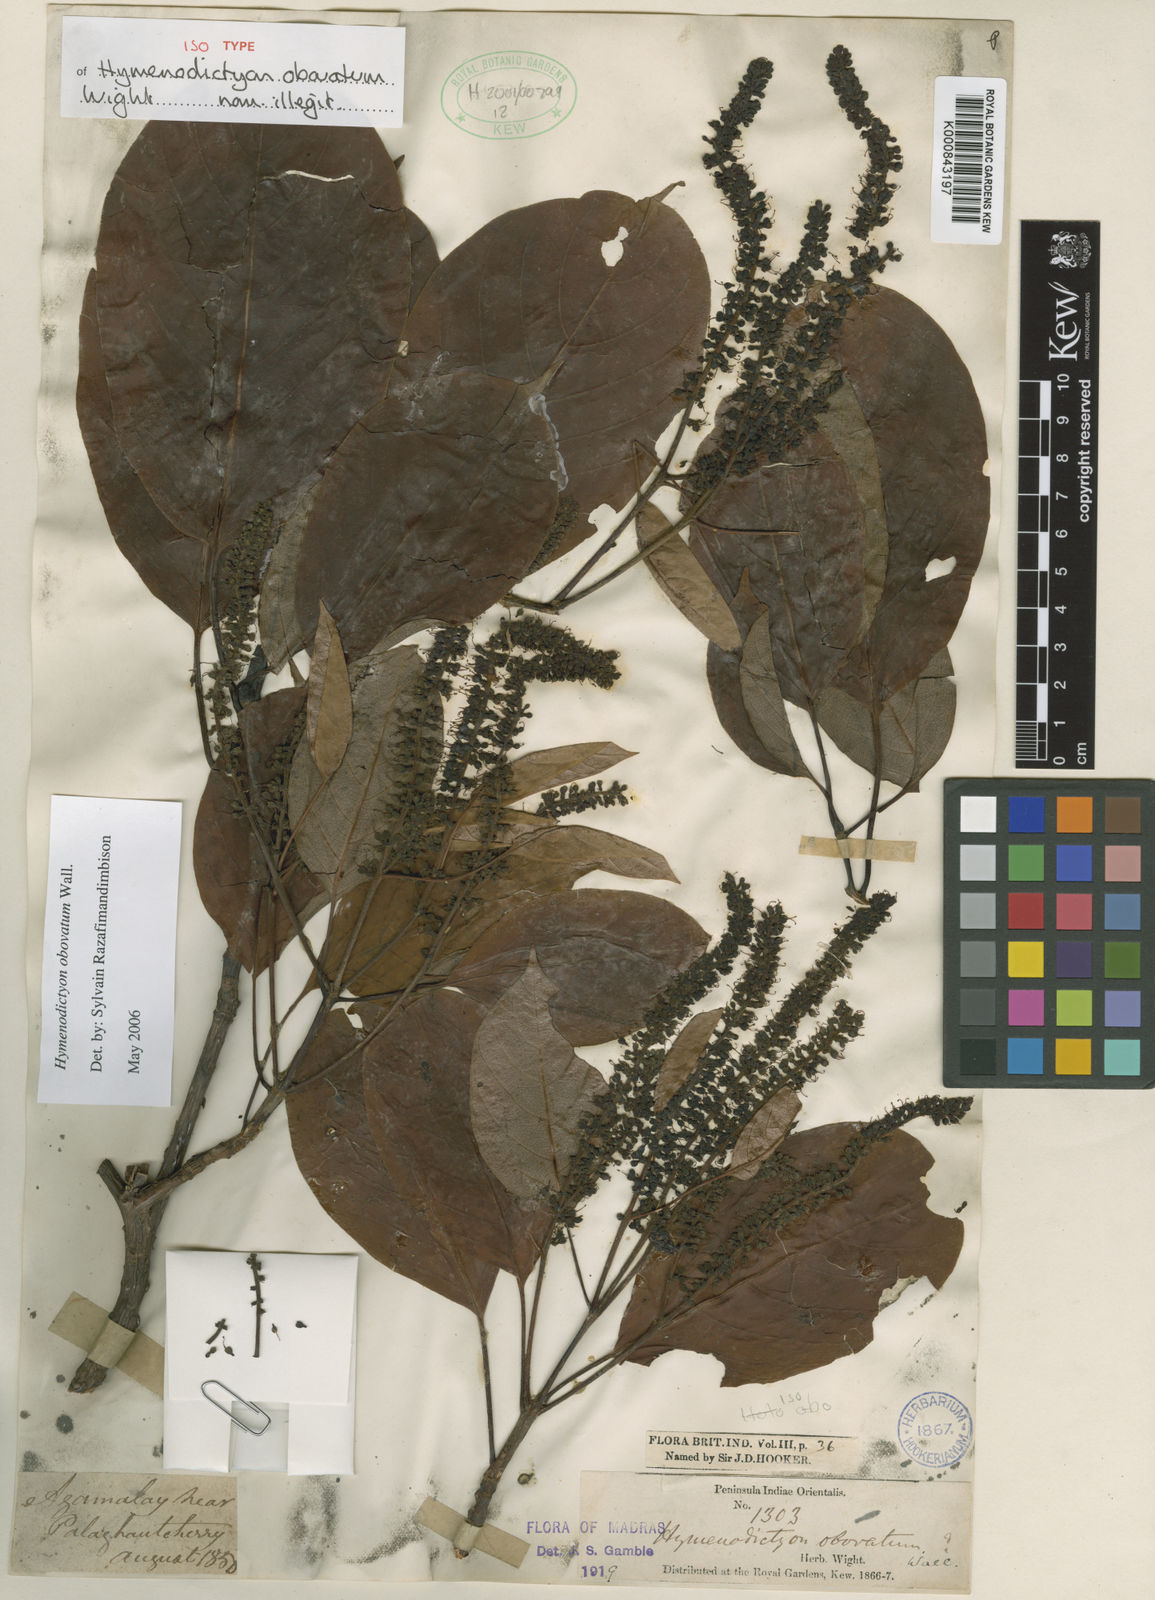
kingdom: Plantae
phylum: Tracheophyta
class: Magnoliopsida
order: Gentianales
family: Rubiaceae
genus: Hymenodictyon
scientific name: Hymenodictyon obovatum
